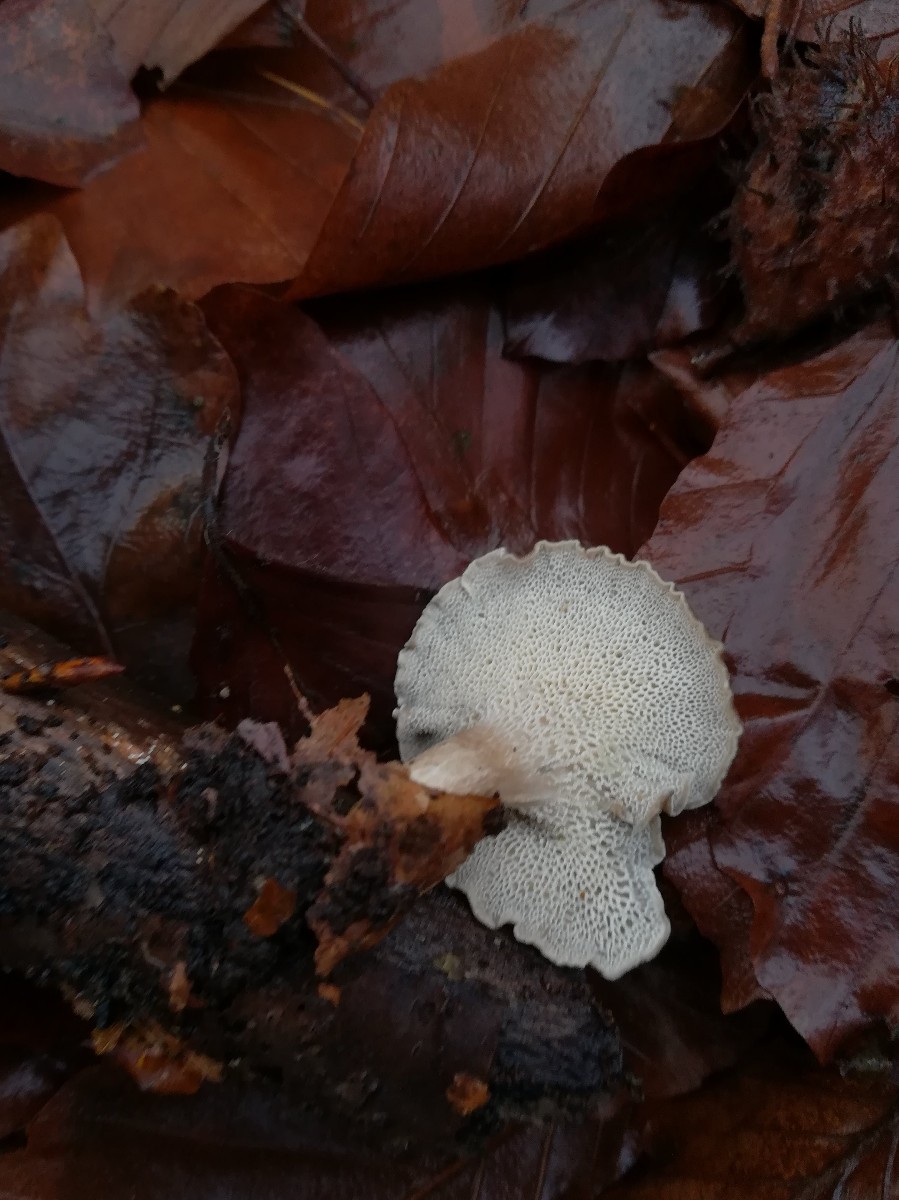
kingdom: Fungi
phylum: Basidiomycota
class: Agaricomycetes
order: Polyporales
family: Polyporaceae
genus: Lentinus
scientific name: Lentinus brumalis
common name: vinter-stilkporesvamp
